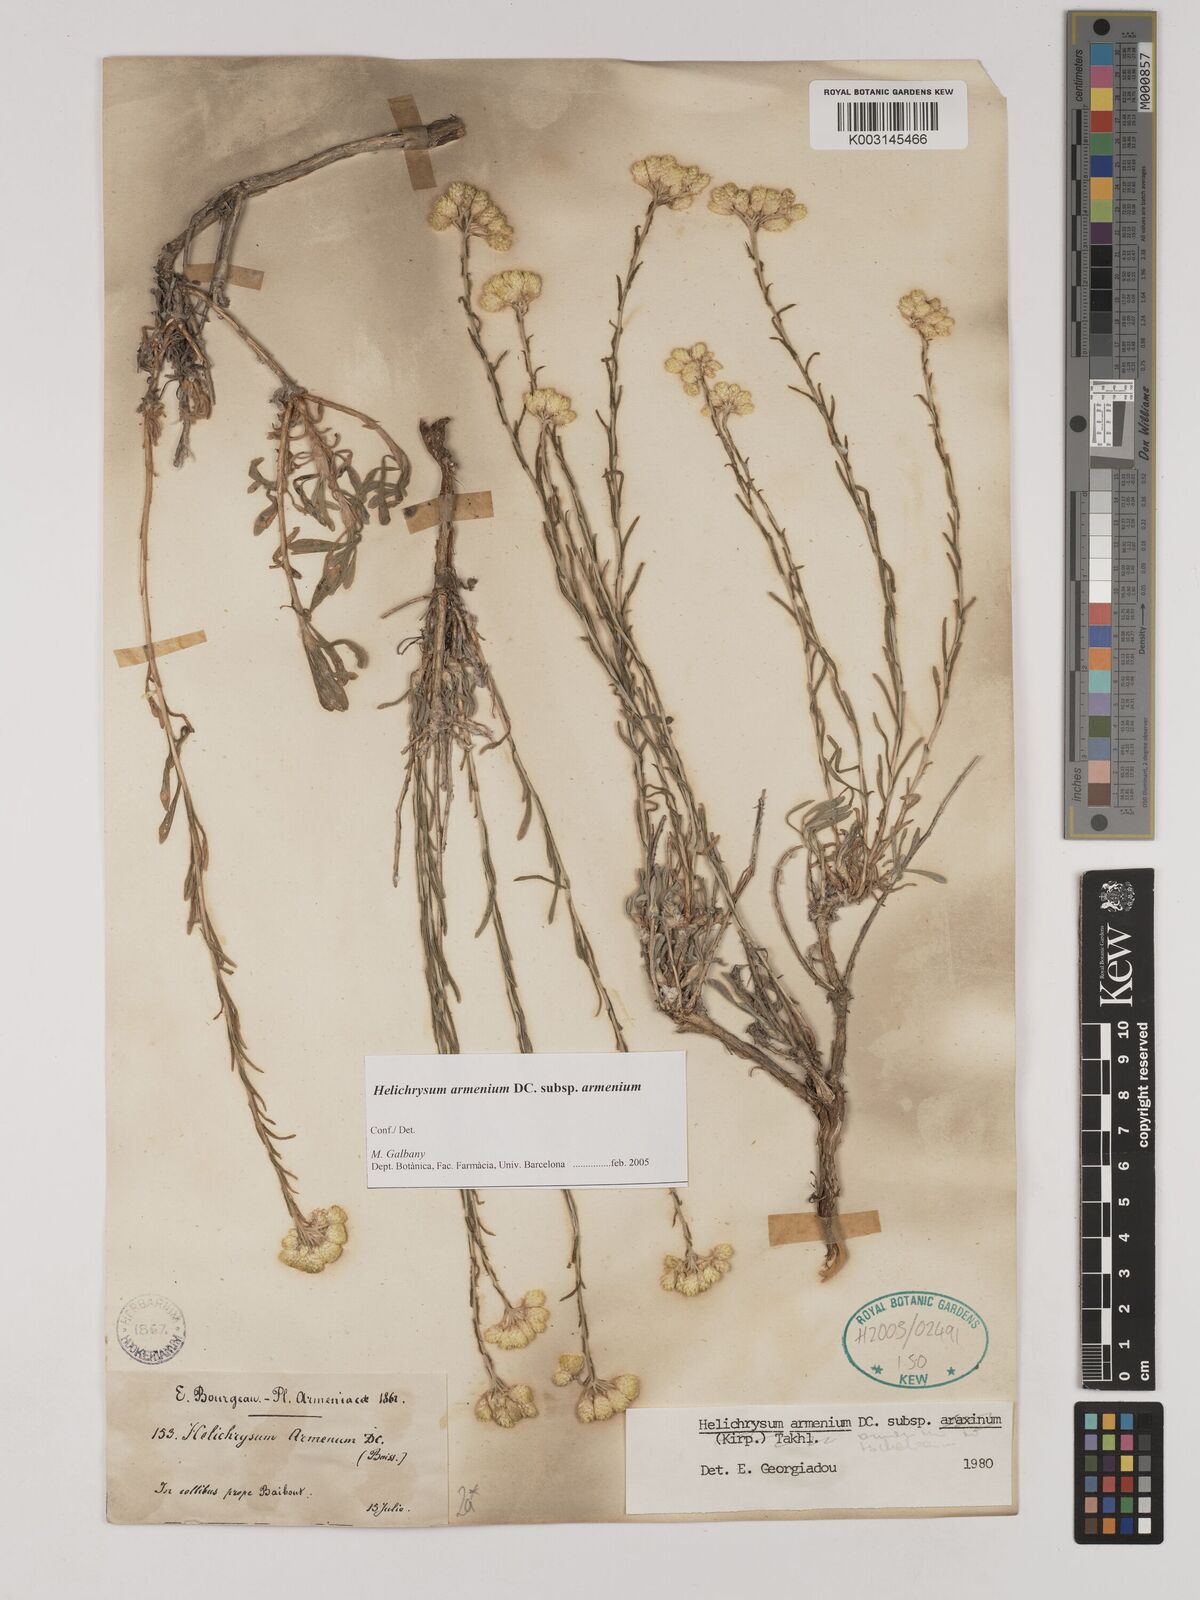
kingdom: Plantae
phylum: Tracheophyta
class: Magnoliopsida
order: Asterales
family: Asteraceae
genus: Helichrysum
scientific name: Helichrysum armenium
